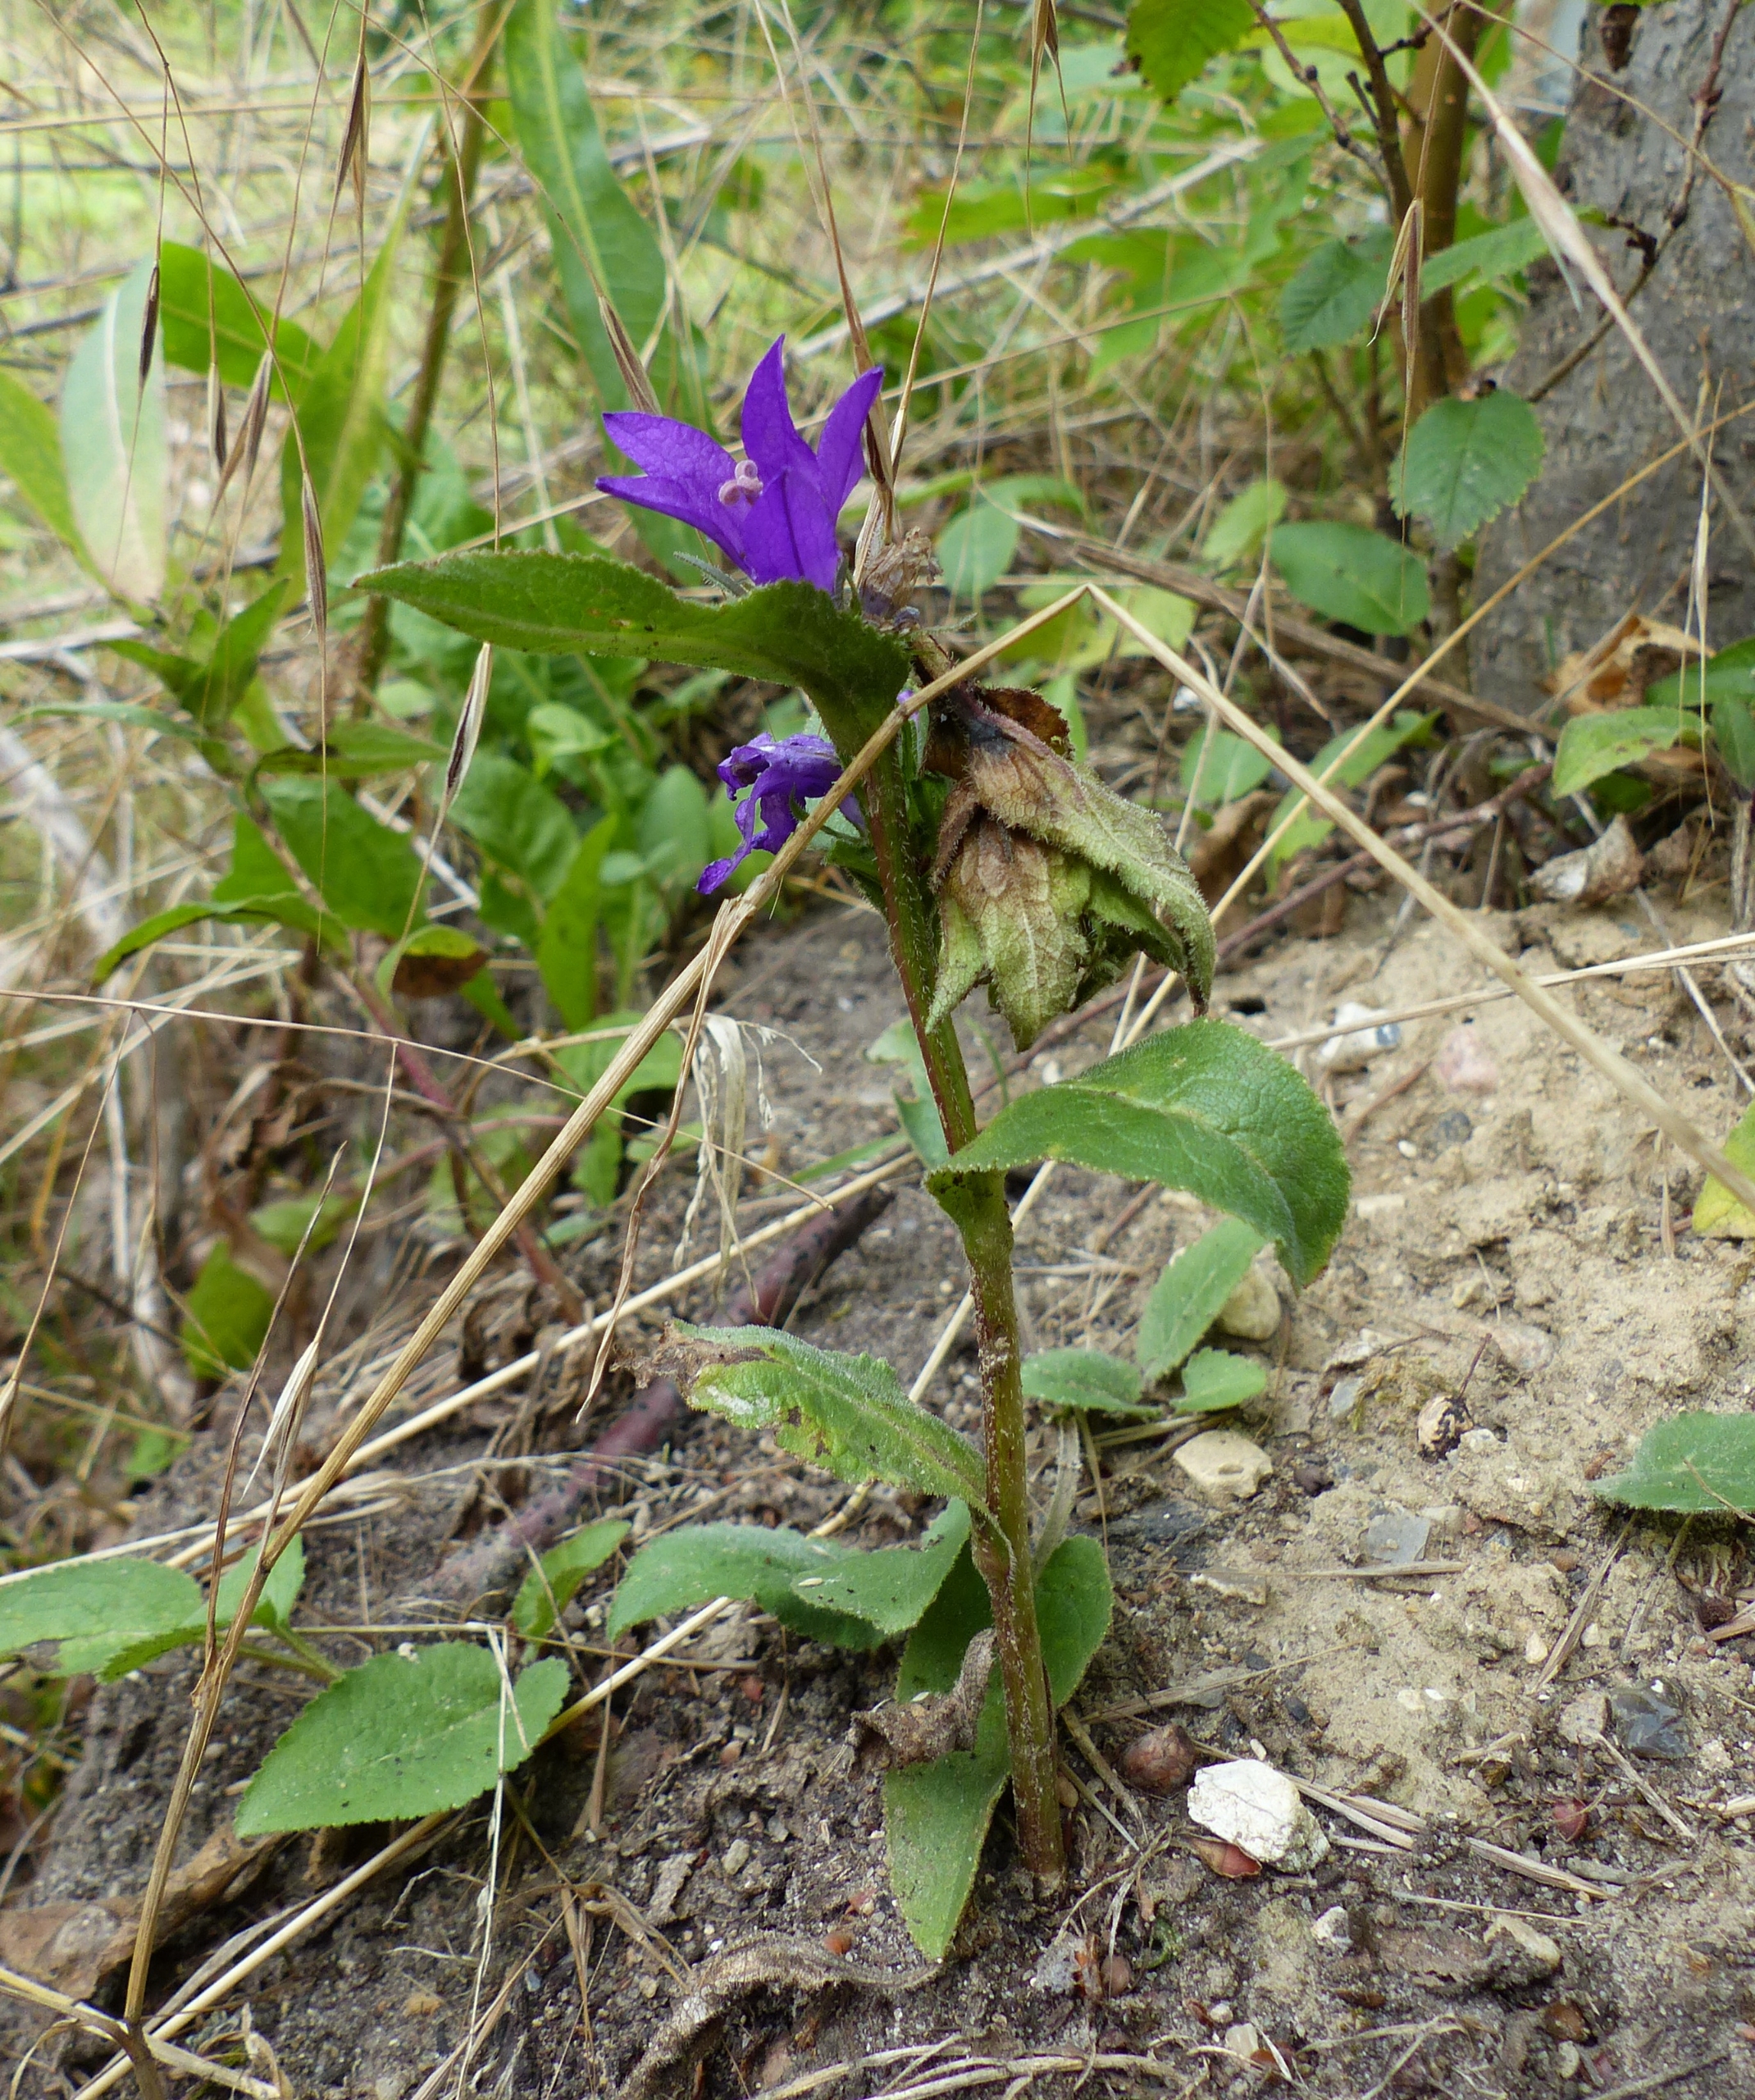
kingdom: Plantae
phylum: Tracheophyta
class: Magnoliopsida
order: Asterales
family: Campanulaceae
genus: Campanula
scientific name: Campanula glomerata
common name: Nøgleblomstret klokke
